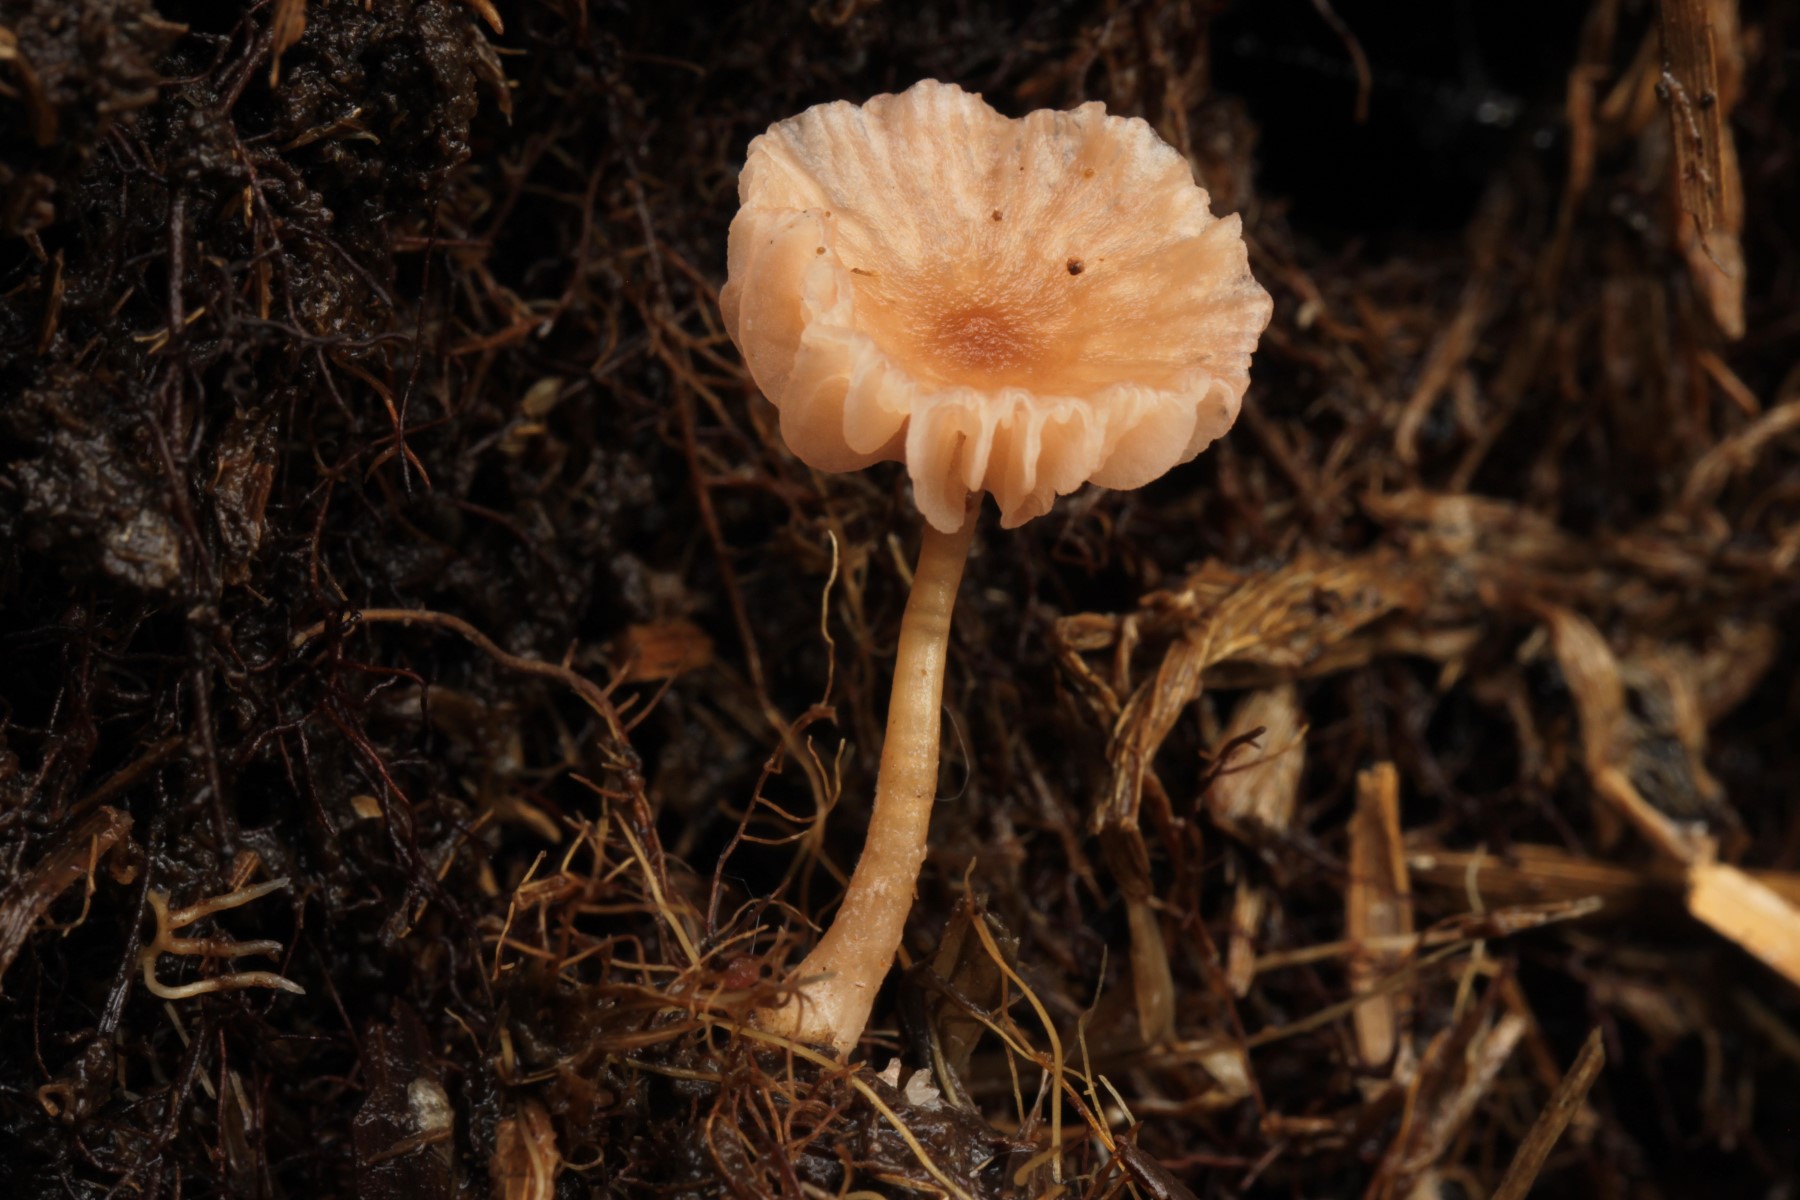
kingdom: Fungi
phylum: Basidiomycota
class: Agaricomycetes
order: Agaricales
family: Hydnangiaceae
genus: Laccaria
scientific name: Laccaria fraterna
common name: pilemose-ametysthat
